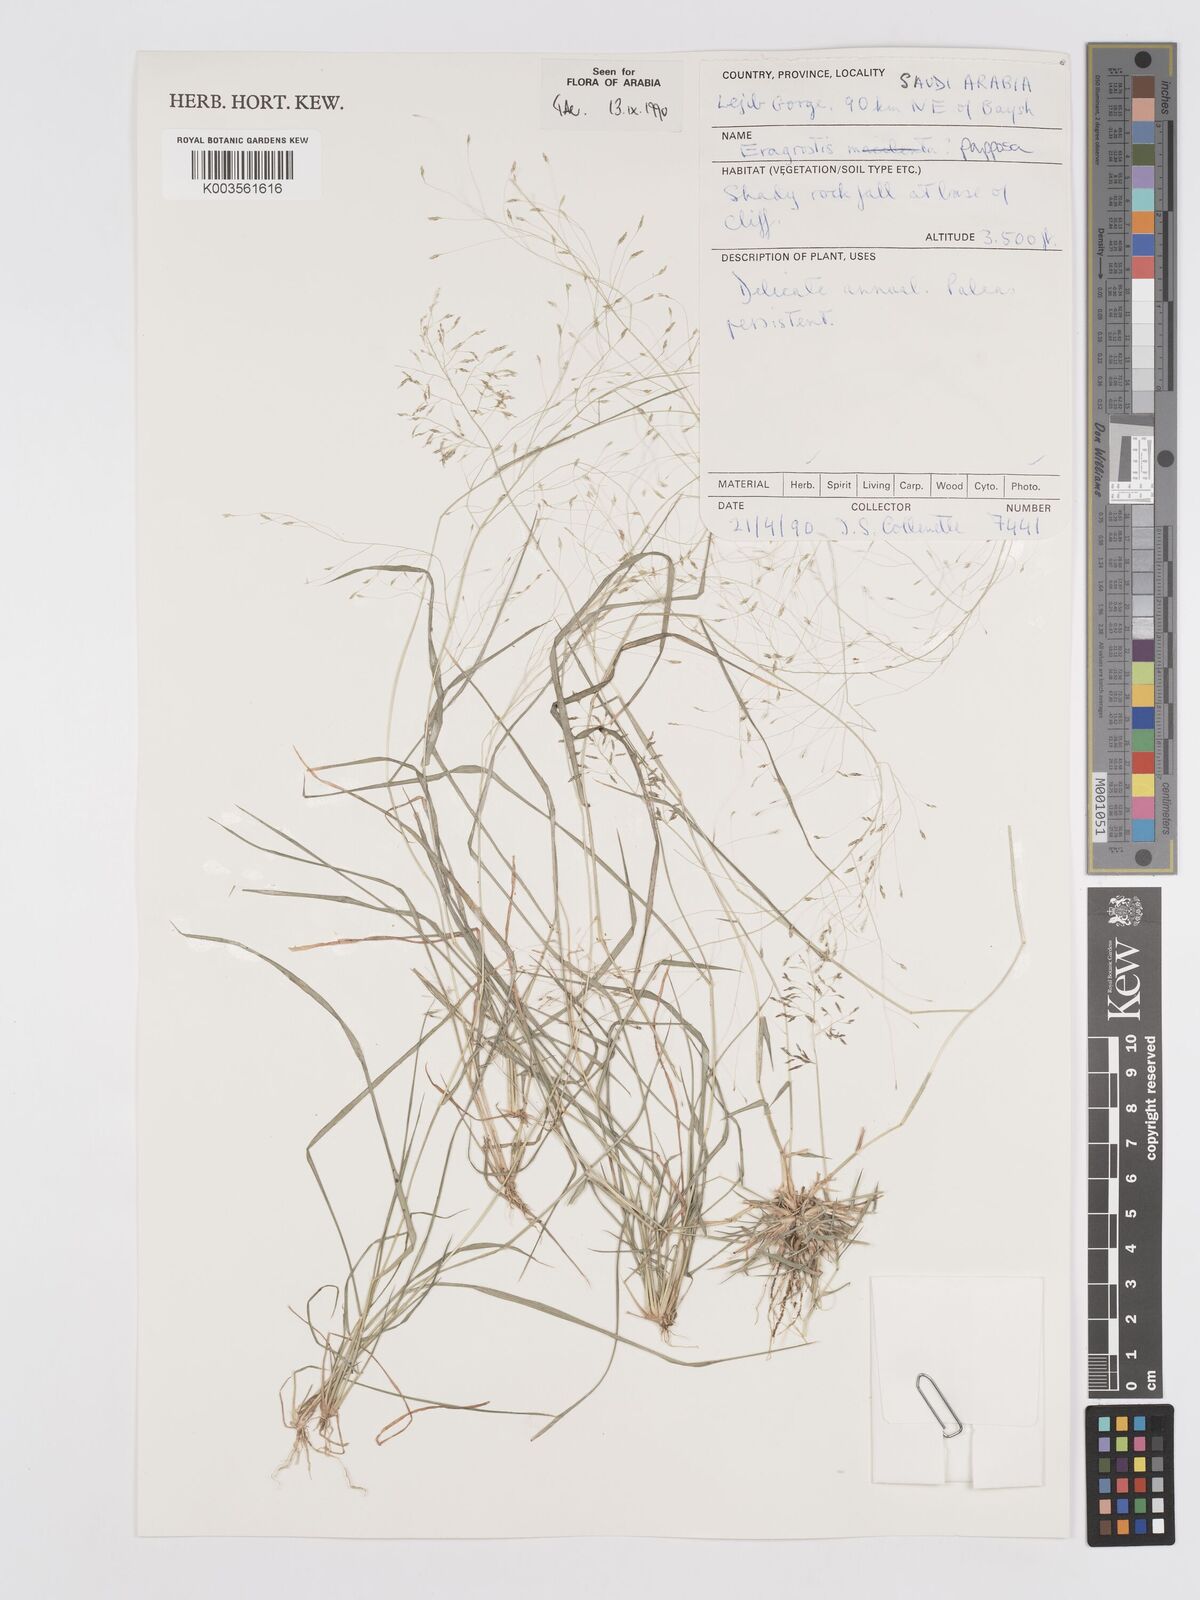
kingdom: Plantae
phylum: Tracheophyta
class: Liliopsida
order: Poales
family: Poaceae
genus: Eragrostis
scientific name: Eragrostis papposa
